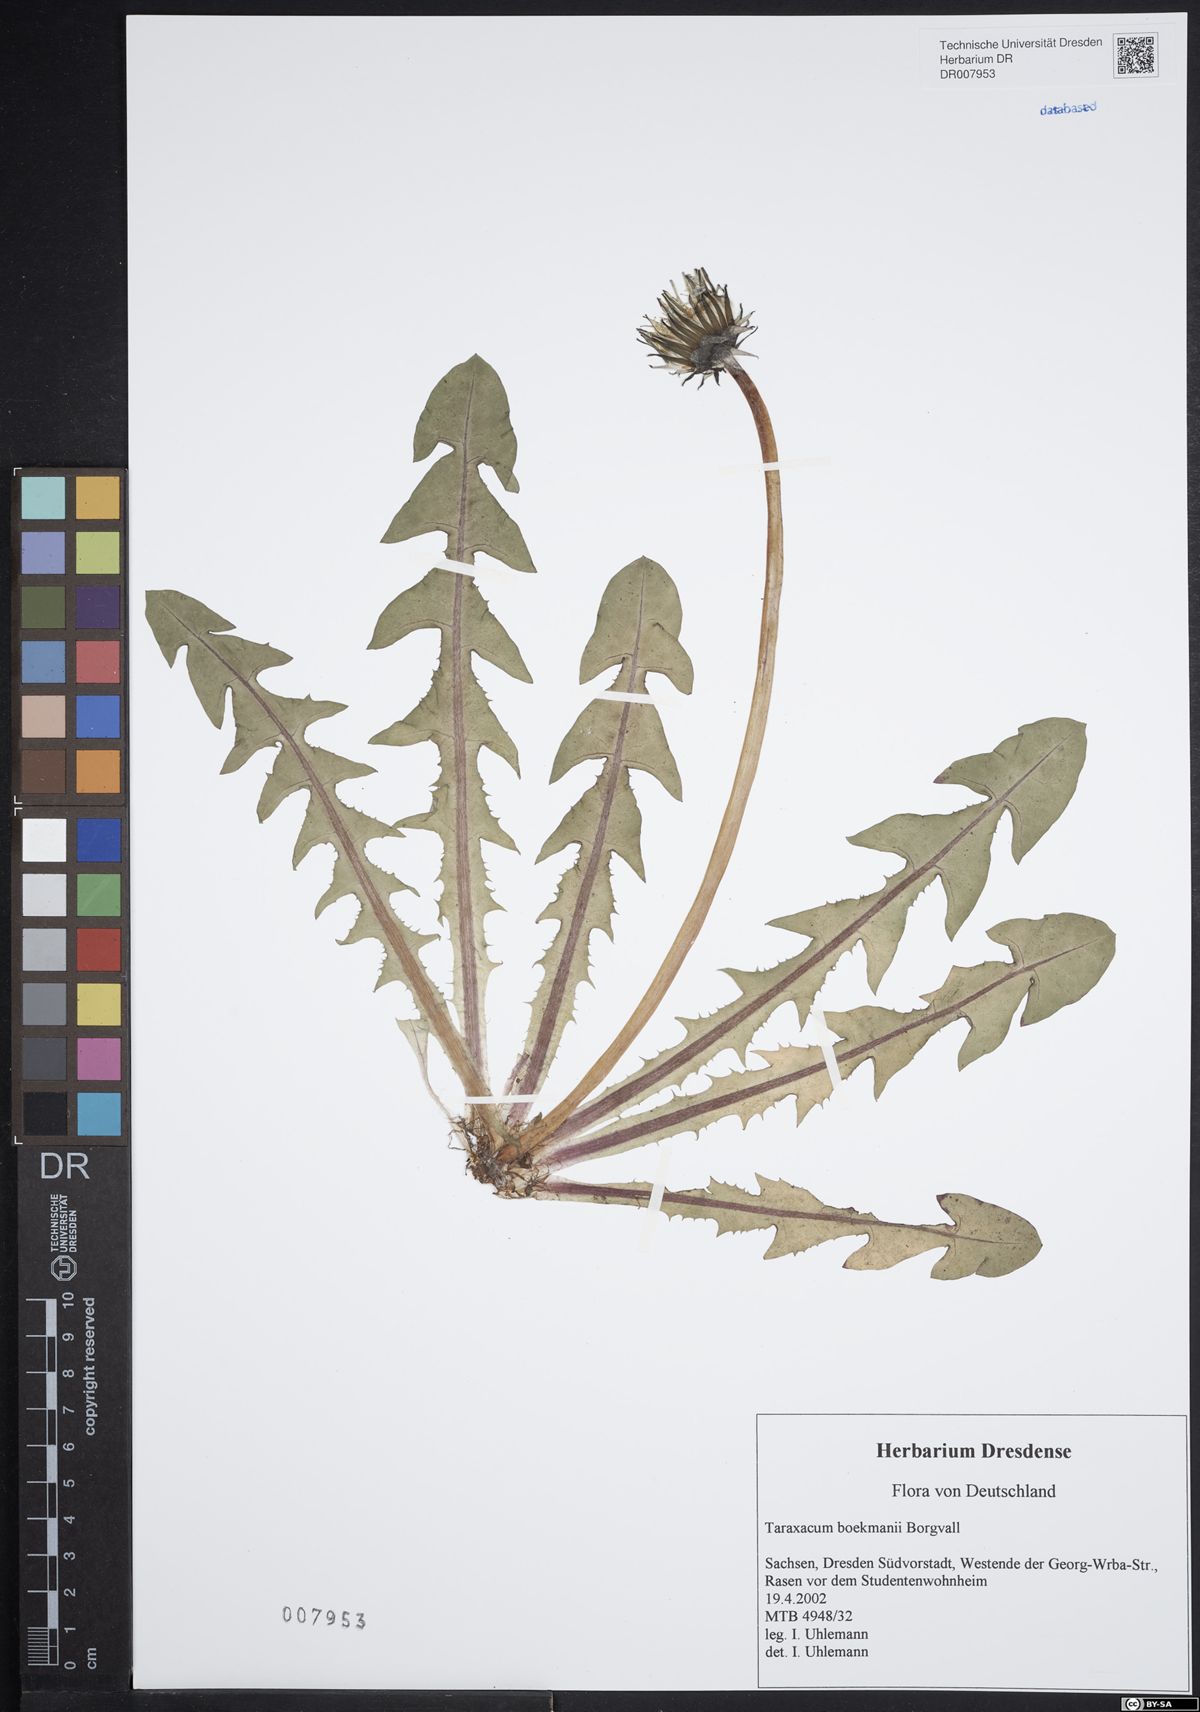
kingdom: Plantae
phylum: Tracheophyta
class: Magnoliopsida
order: Asterales
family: Asteraceae
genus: Taraxacum
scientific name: Taraxacum boekmanii
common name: Bökman's dandelion
